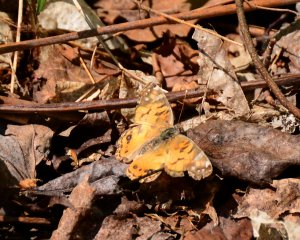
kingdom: Animalia
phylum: Arthropoda
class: Insecta
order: Lepidoptera
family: Nymphalidae
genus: Vanessa
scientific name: Vanessa virginiensis
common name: American Lady
